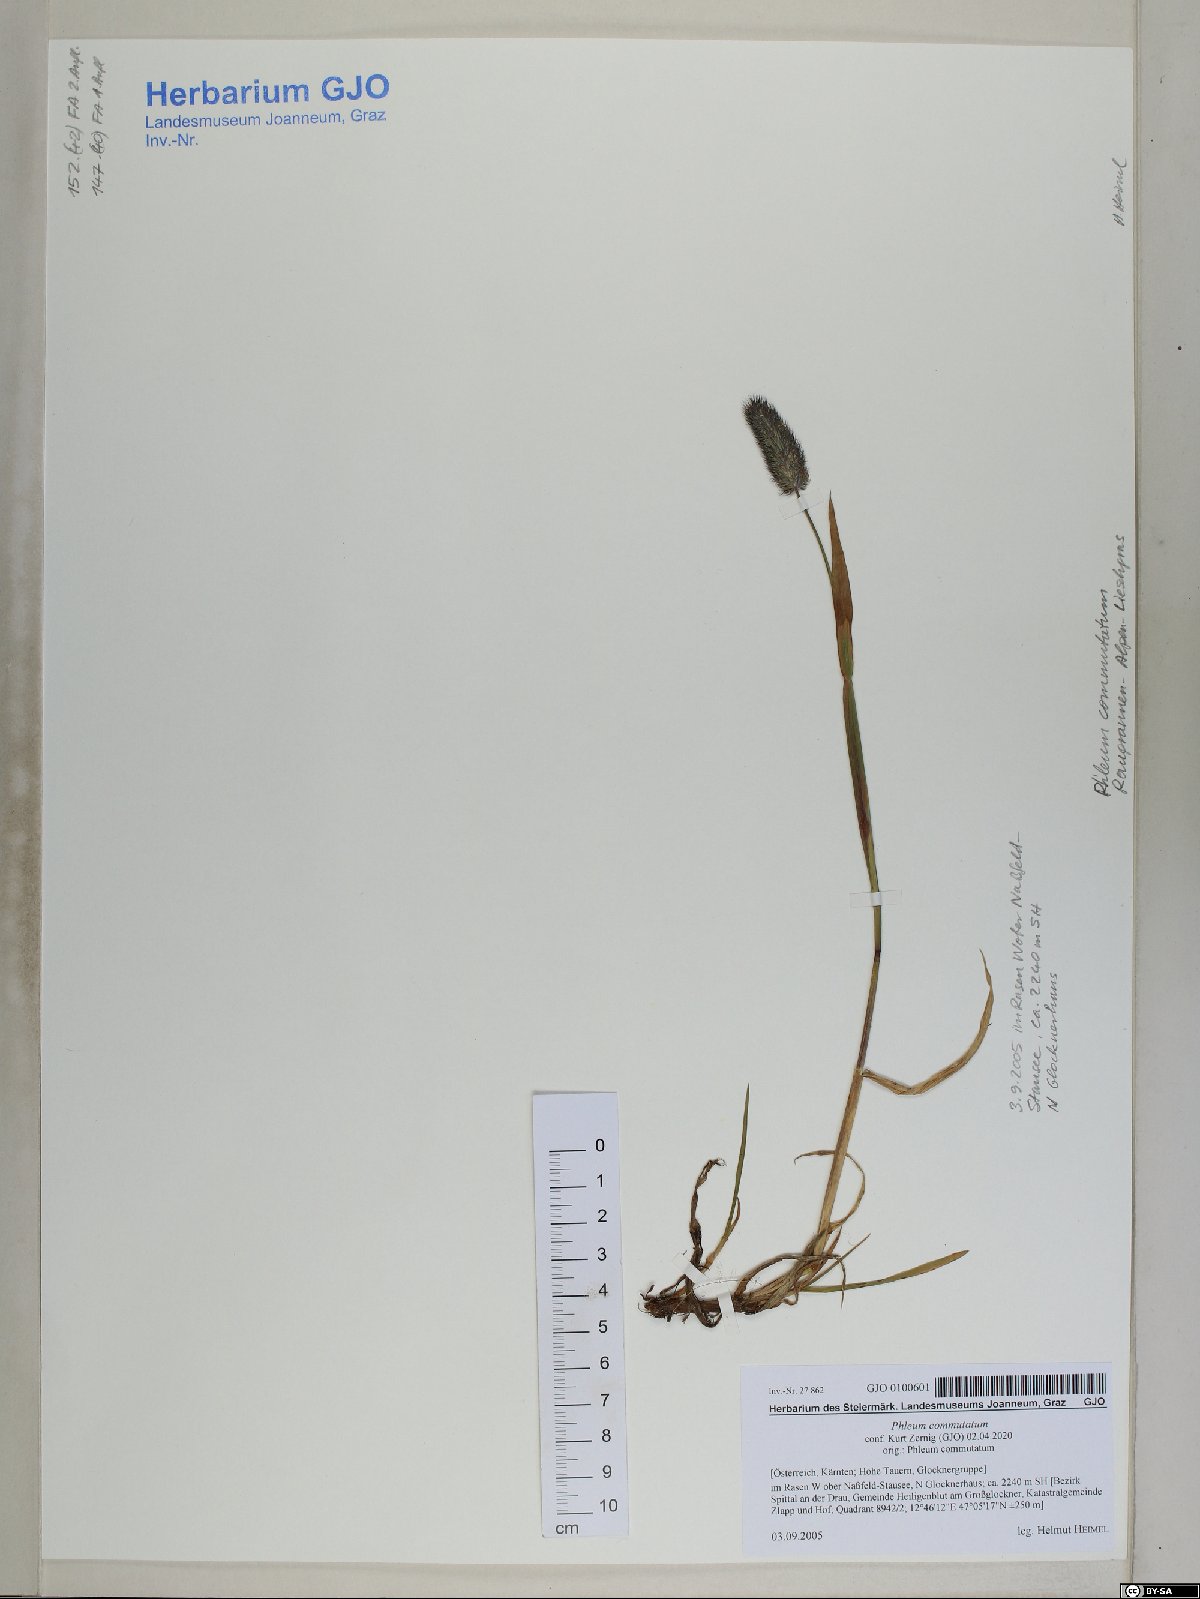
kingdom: Plantae
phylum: Tracheophyta
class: Liliopsida
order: Poales
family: Poaceae
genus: Phleum
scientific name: Phleum alpinum
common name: Alpine cat's-tail
